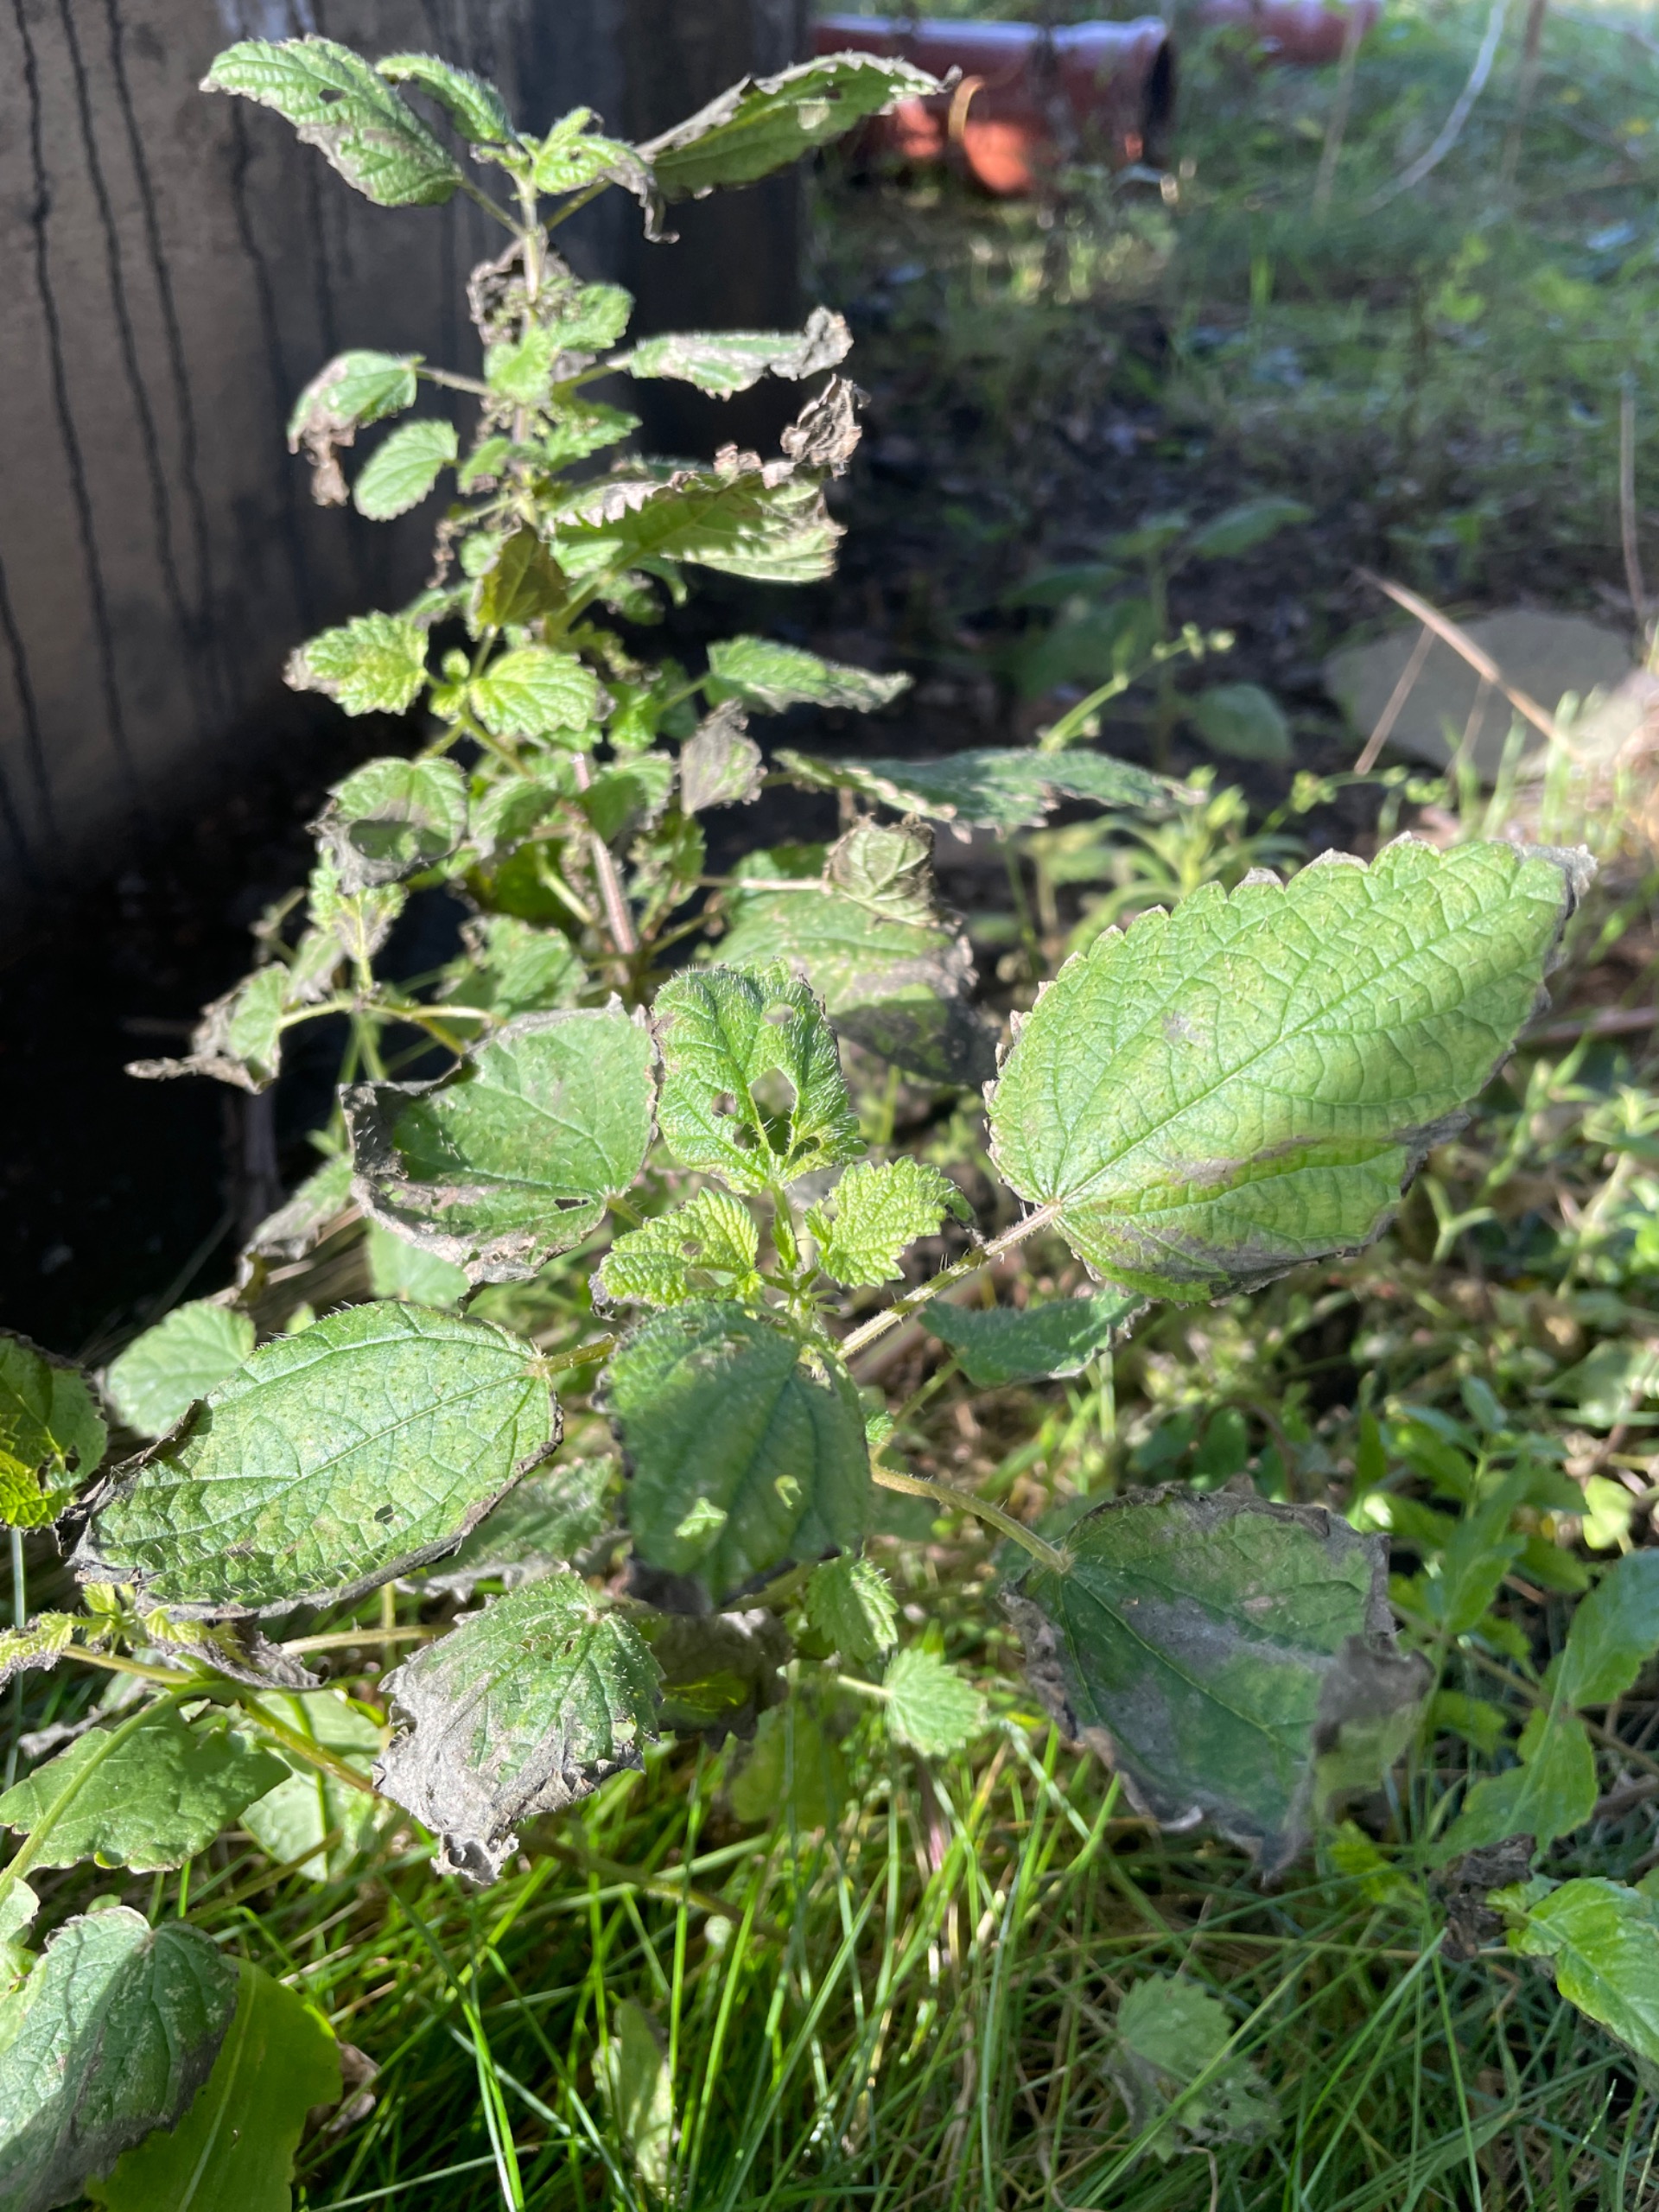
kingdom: Plantae
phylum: Tracheophyta
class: Magnoliopsida
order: Rosales
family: Urticaceae
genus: Urtica
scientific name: Urtica dioica
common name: Stor nælde
